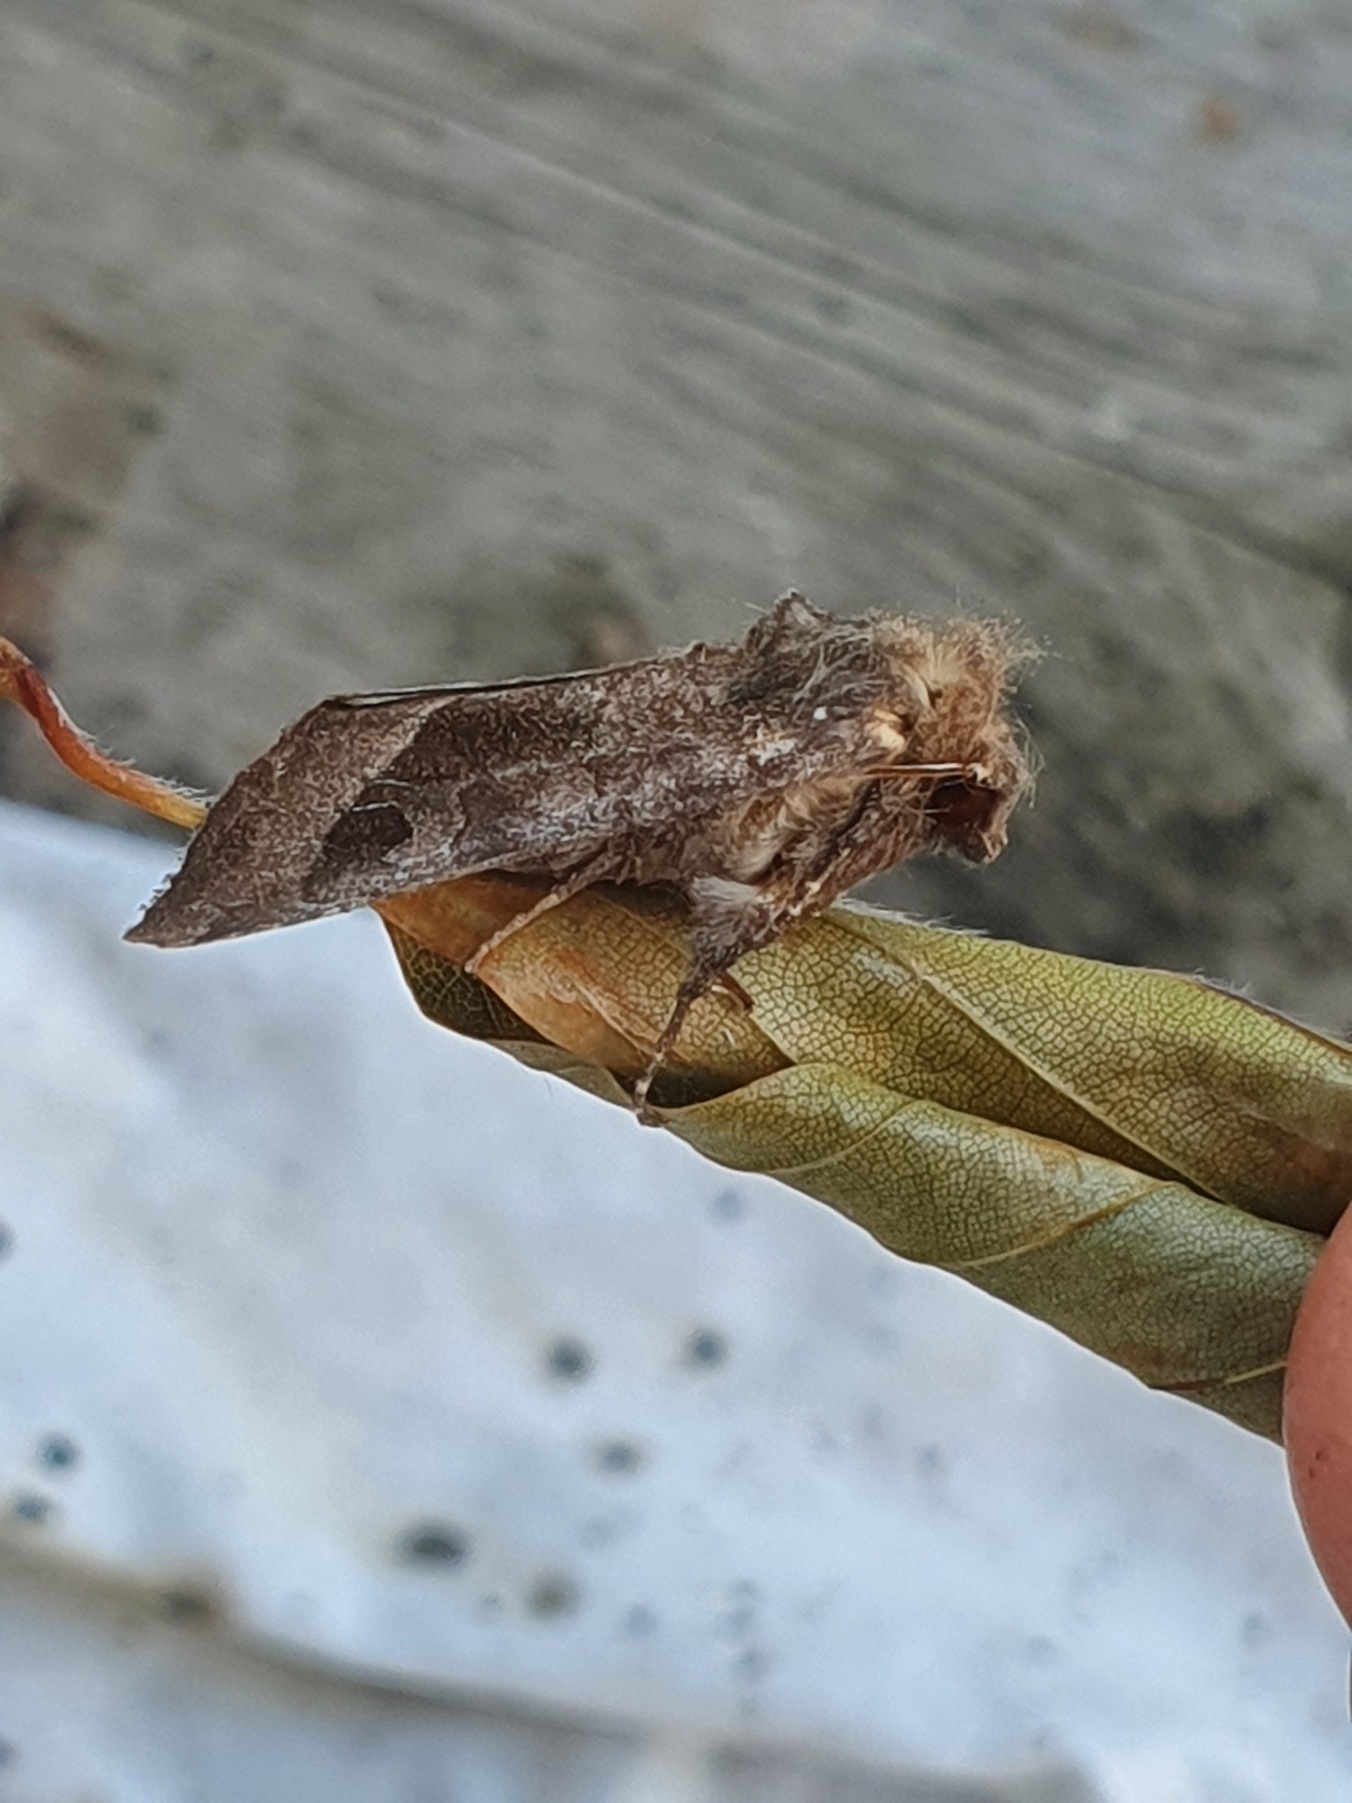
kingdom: Animalia
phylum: Arthropoda
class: Insecta
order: Lepidoptera
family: Noctuidae
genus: Hydraecia
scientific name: Hydraecia micacea
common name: Kartoffelborer
